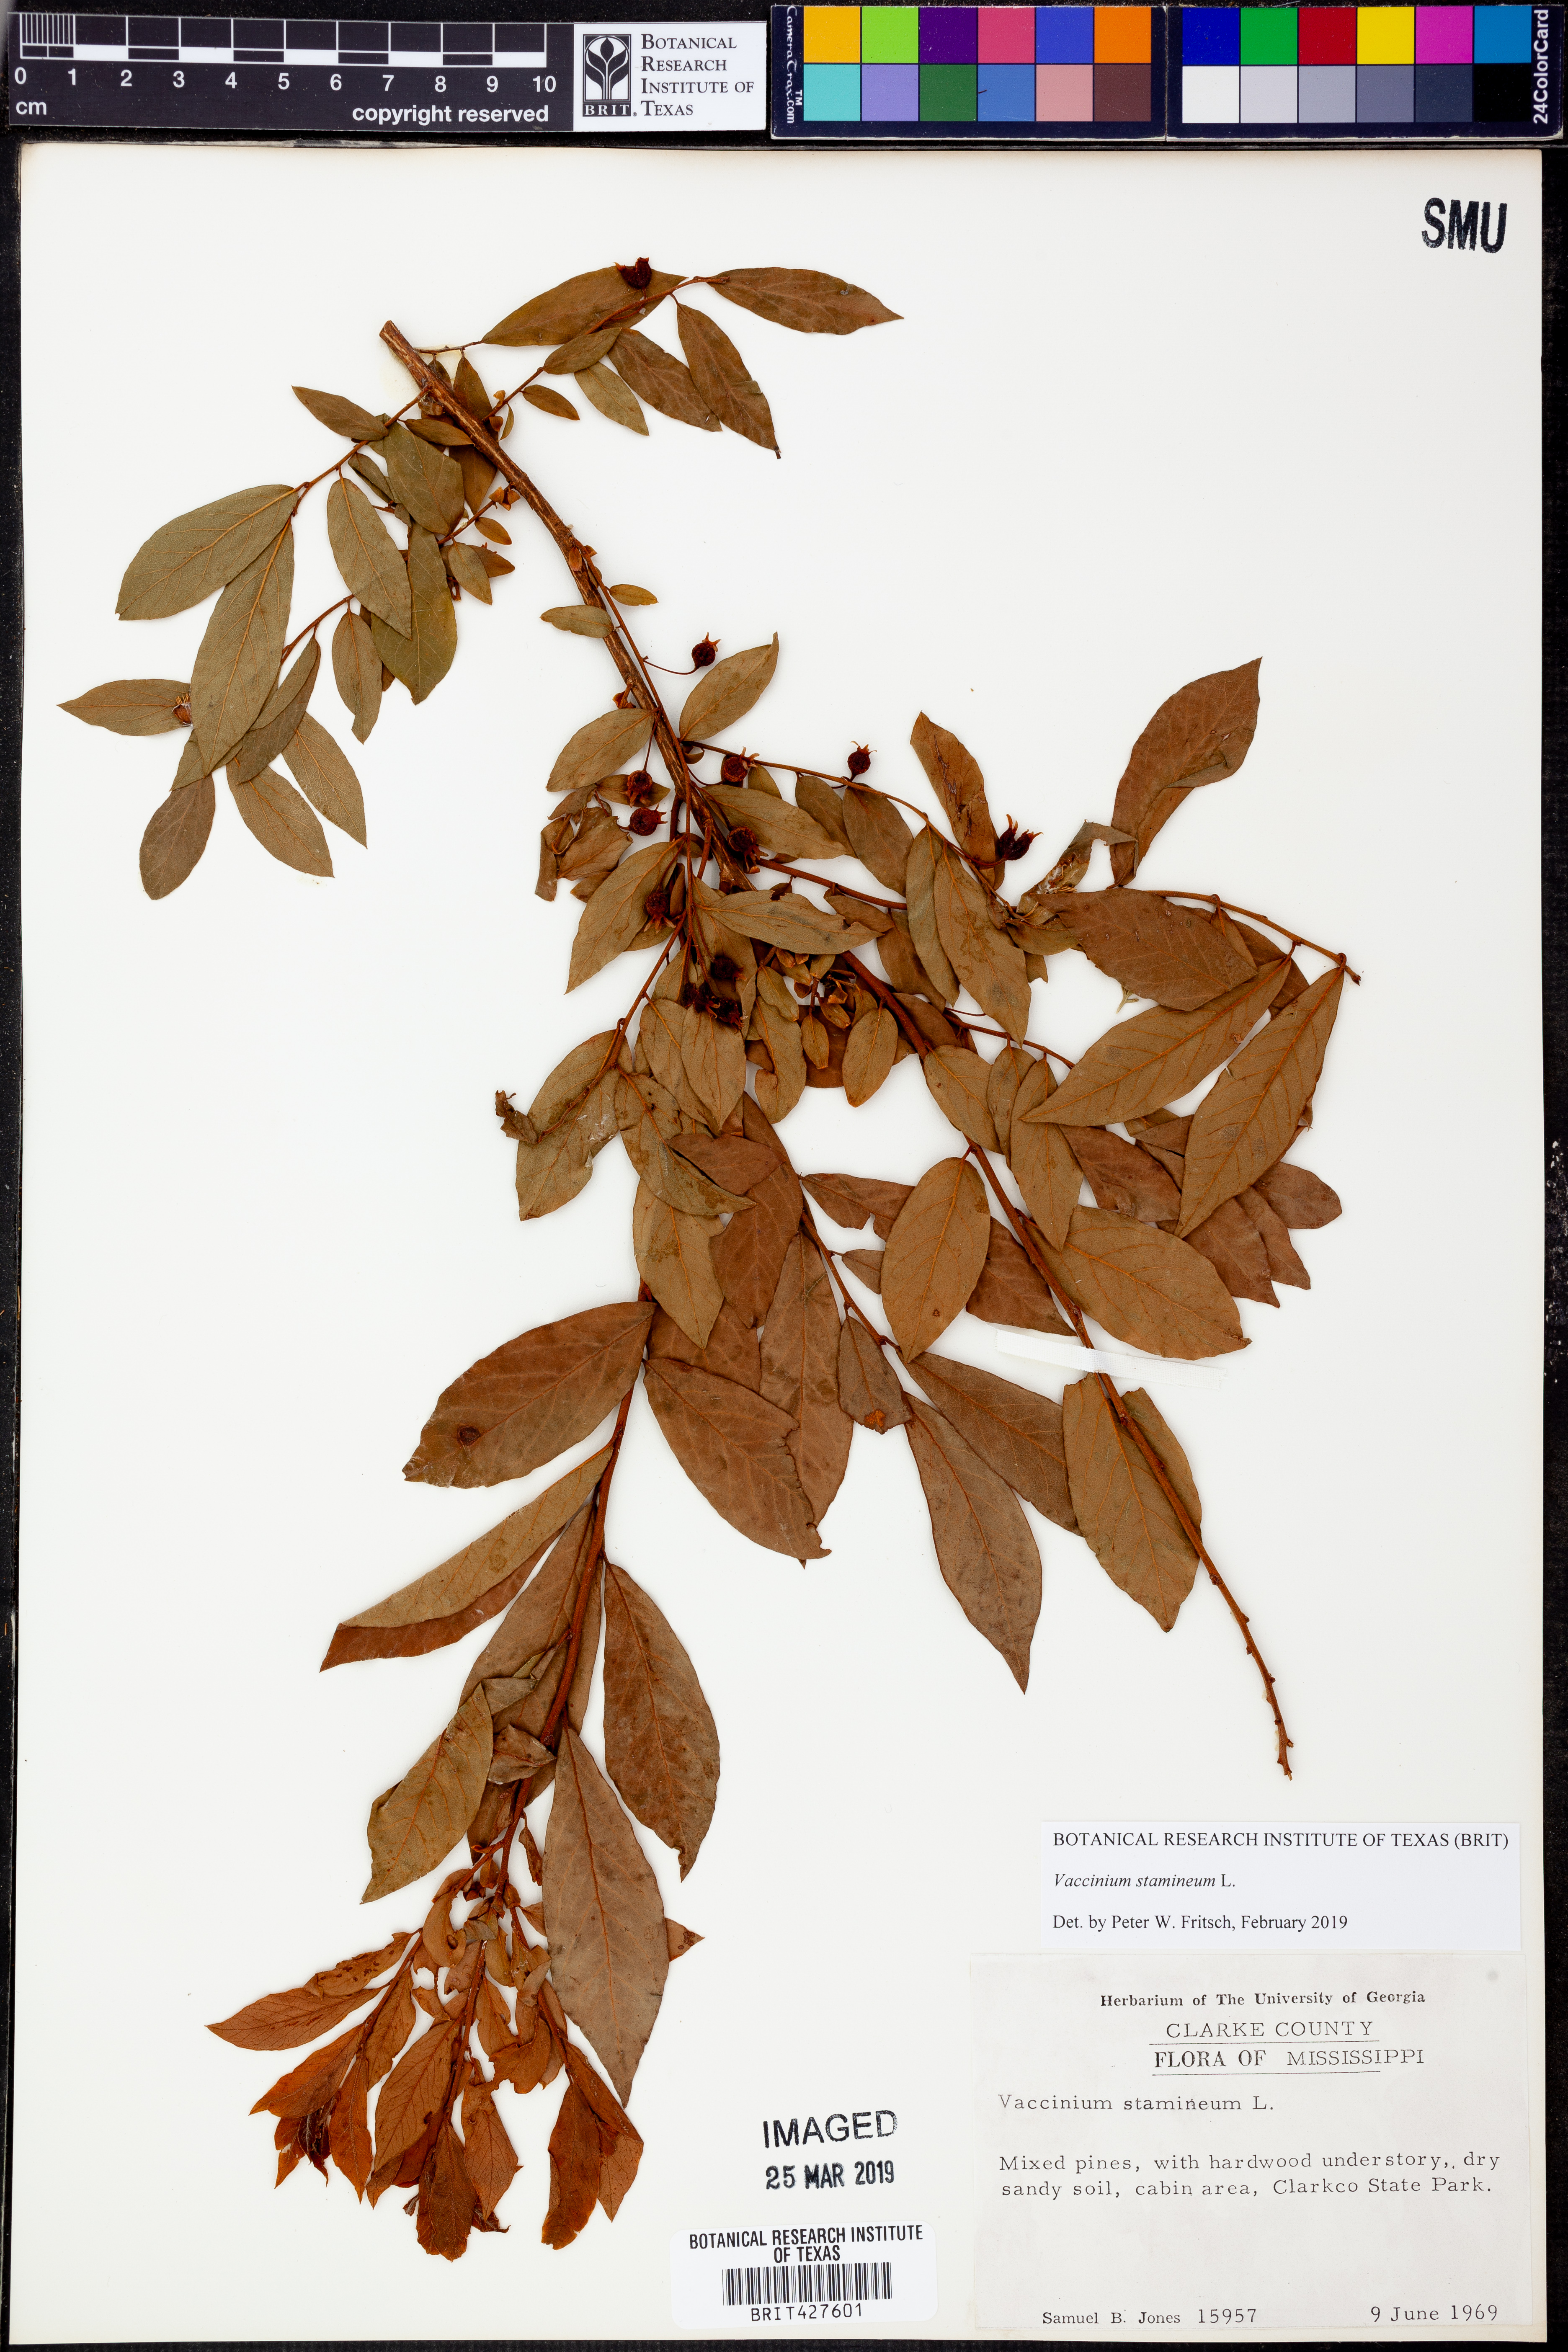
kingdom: Plantae
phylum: Tracheophyta
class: Magnoliopsida
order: Ericales
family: Ericaceae
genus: Vaccinium
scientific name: Vaccinium stamineum
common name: Deerberry
